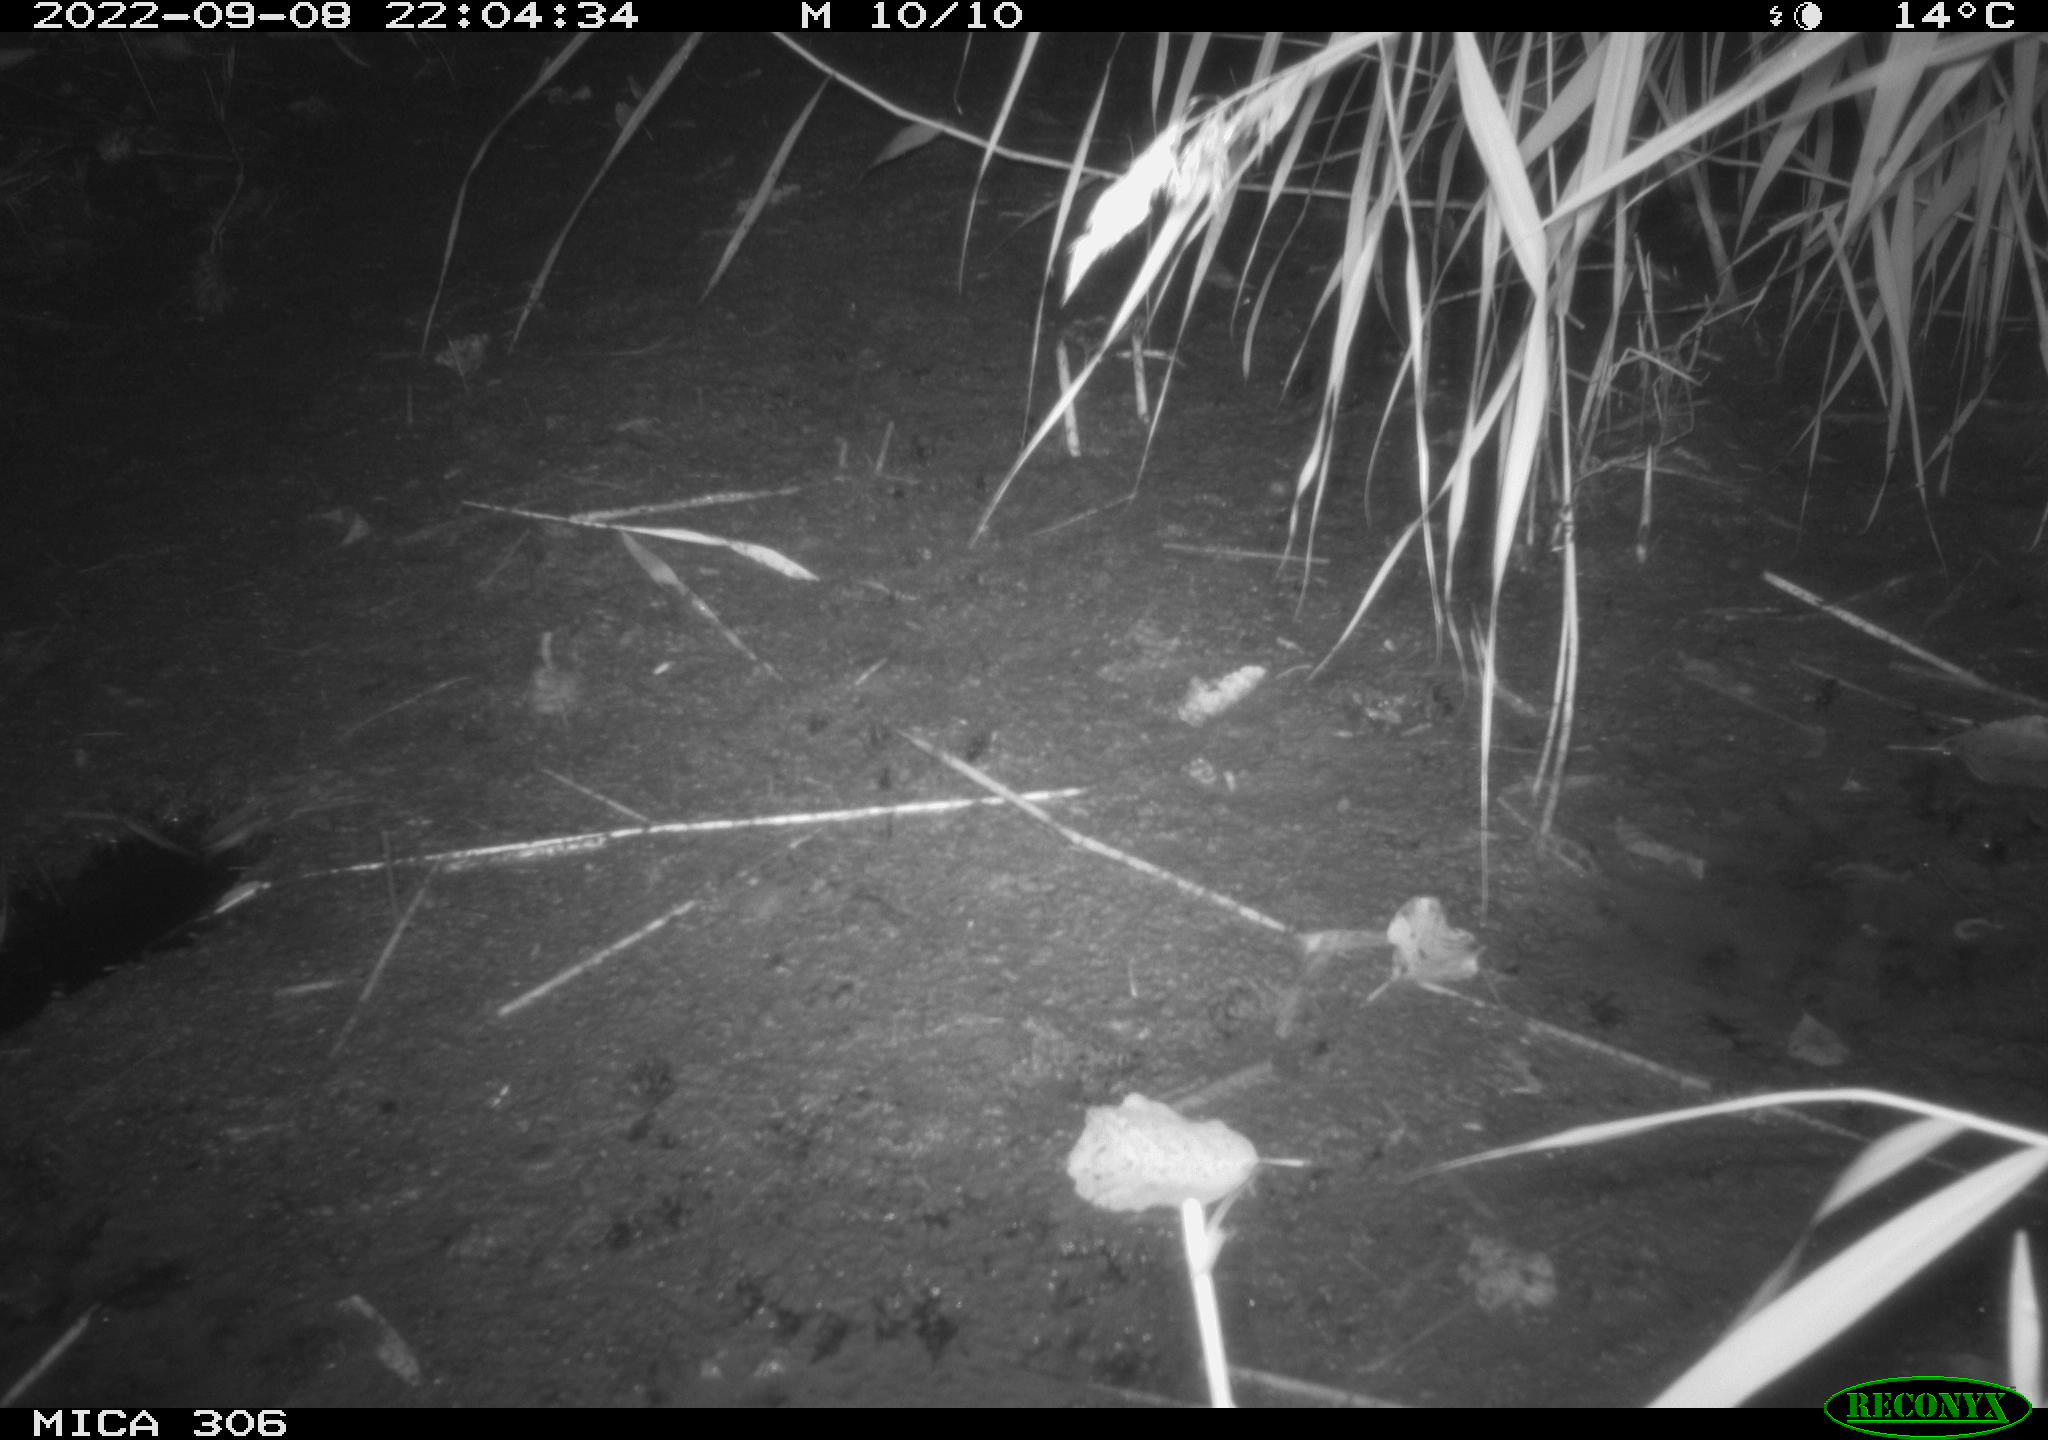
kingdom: Animalia
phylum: Chordata
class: Mammalia
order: Rodentia
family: Muridae
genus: Rattus
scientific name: Rattus norvegicus
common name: Brown rat
